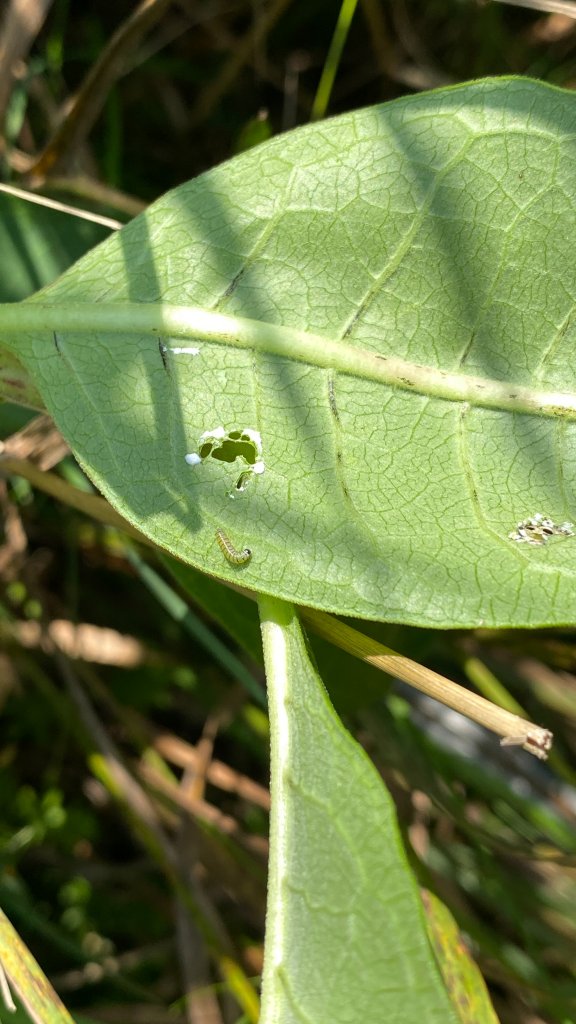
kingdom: Animalia
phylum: Arthropoda
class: Insecta
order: Lepidoptera
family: Nymphalidae
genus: Danaus
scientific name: Danaus plexippus
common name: Monarch
